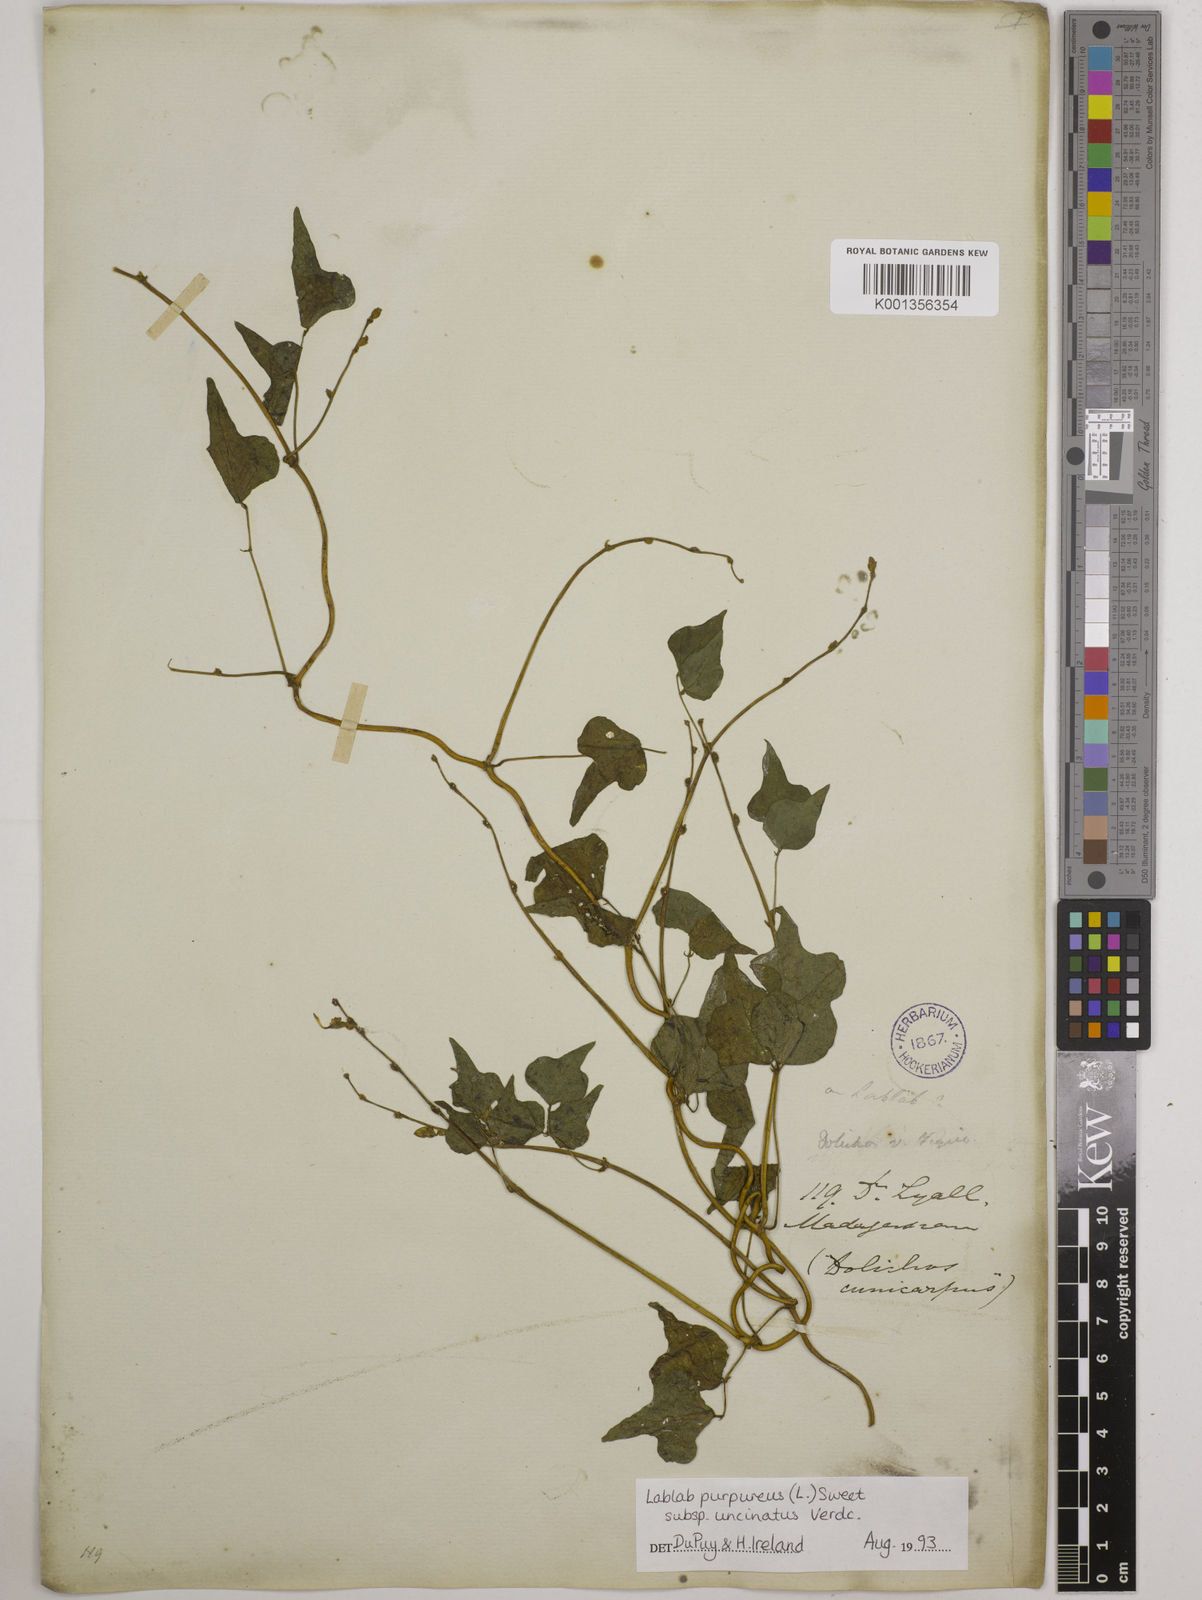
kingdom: Plantae
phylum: Tracheophyta
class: Magnoliopsida
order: Fabales
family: Fabaceae
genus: Lablab
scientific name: Lablab purpureus
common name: Lablab-bean
